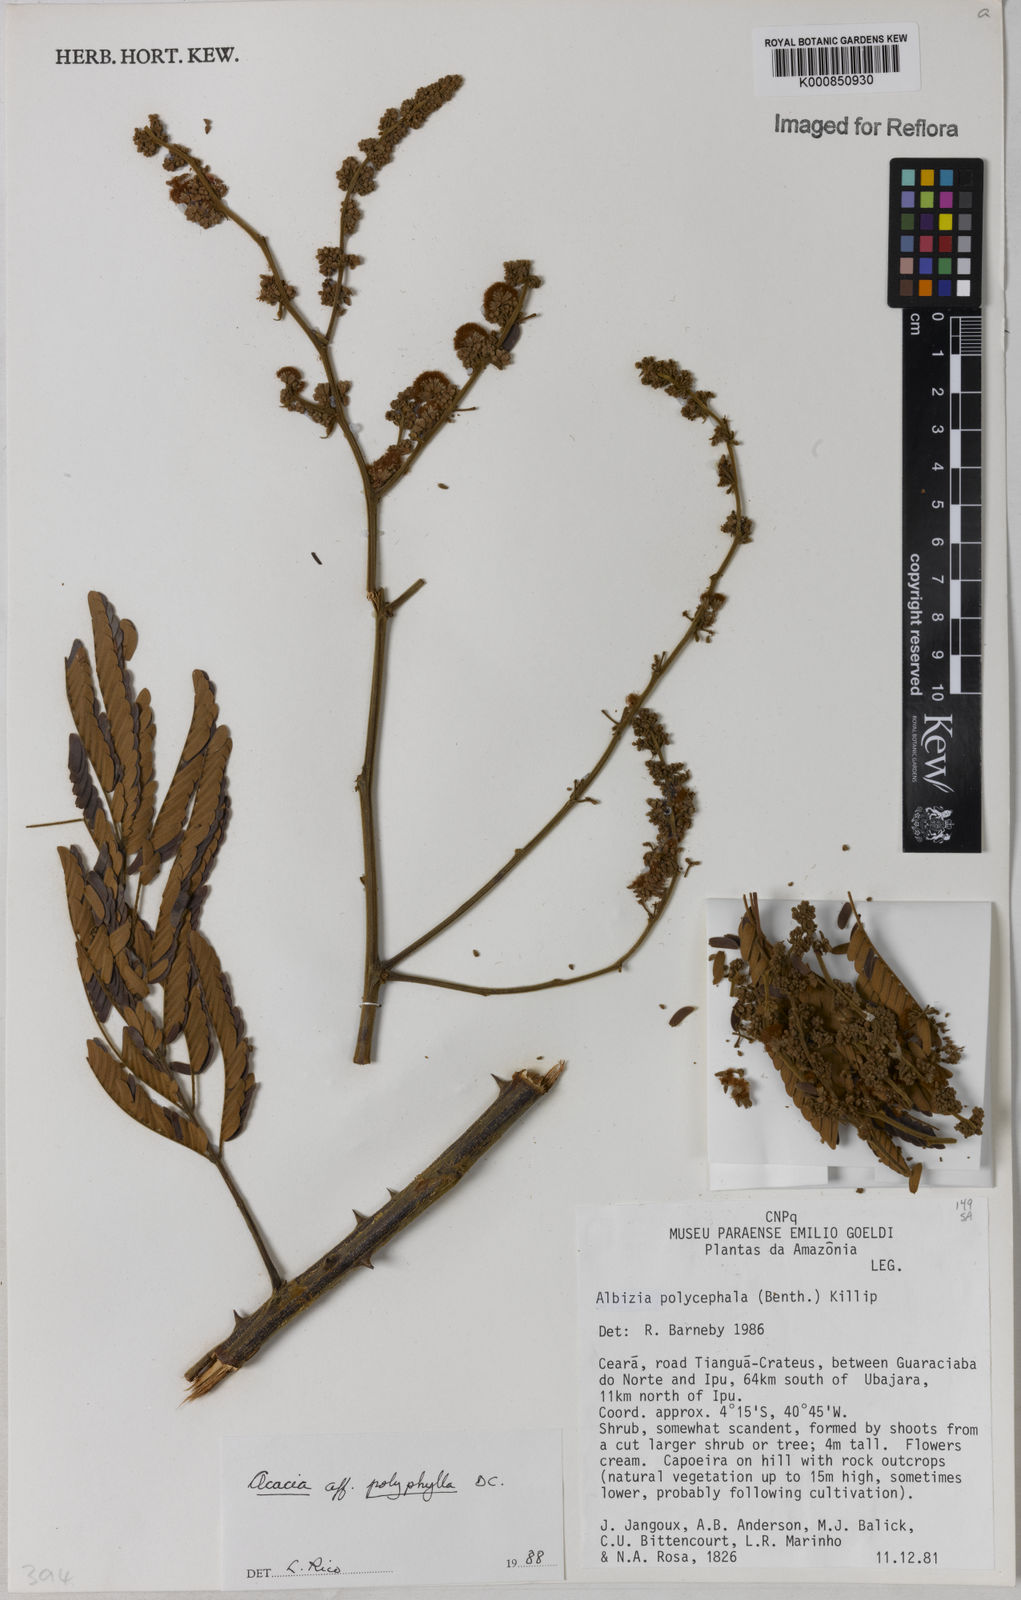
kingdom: Plantae
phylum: Tracheophyta
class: Magnoliopsida
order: Fabales
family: Fabaceae
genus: Senegalia
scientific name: Senegalia polyphylla
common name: White-tamarind
